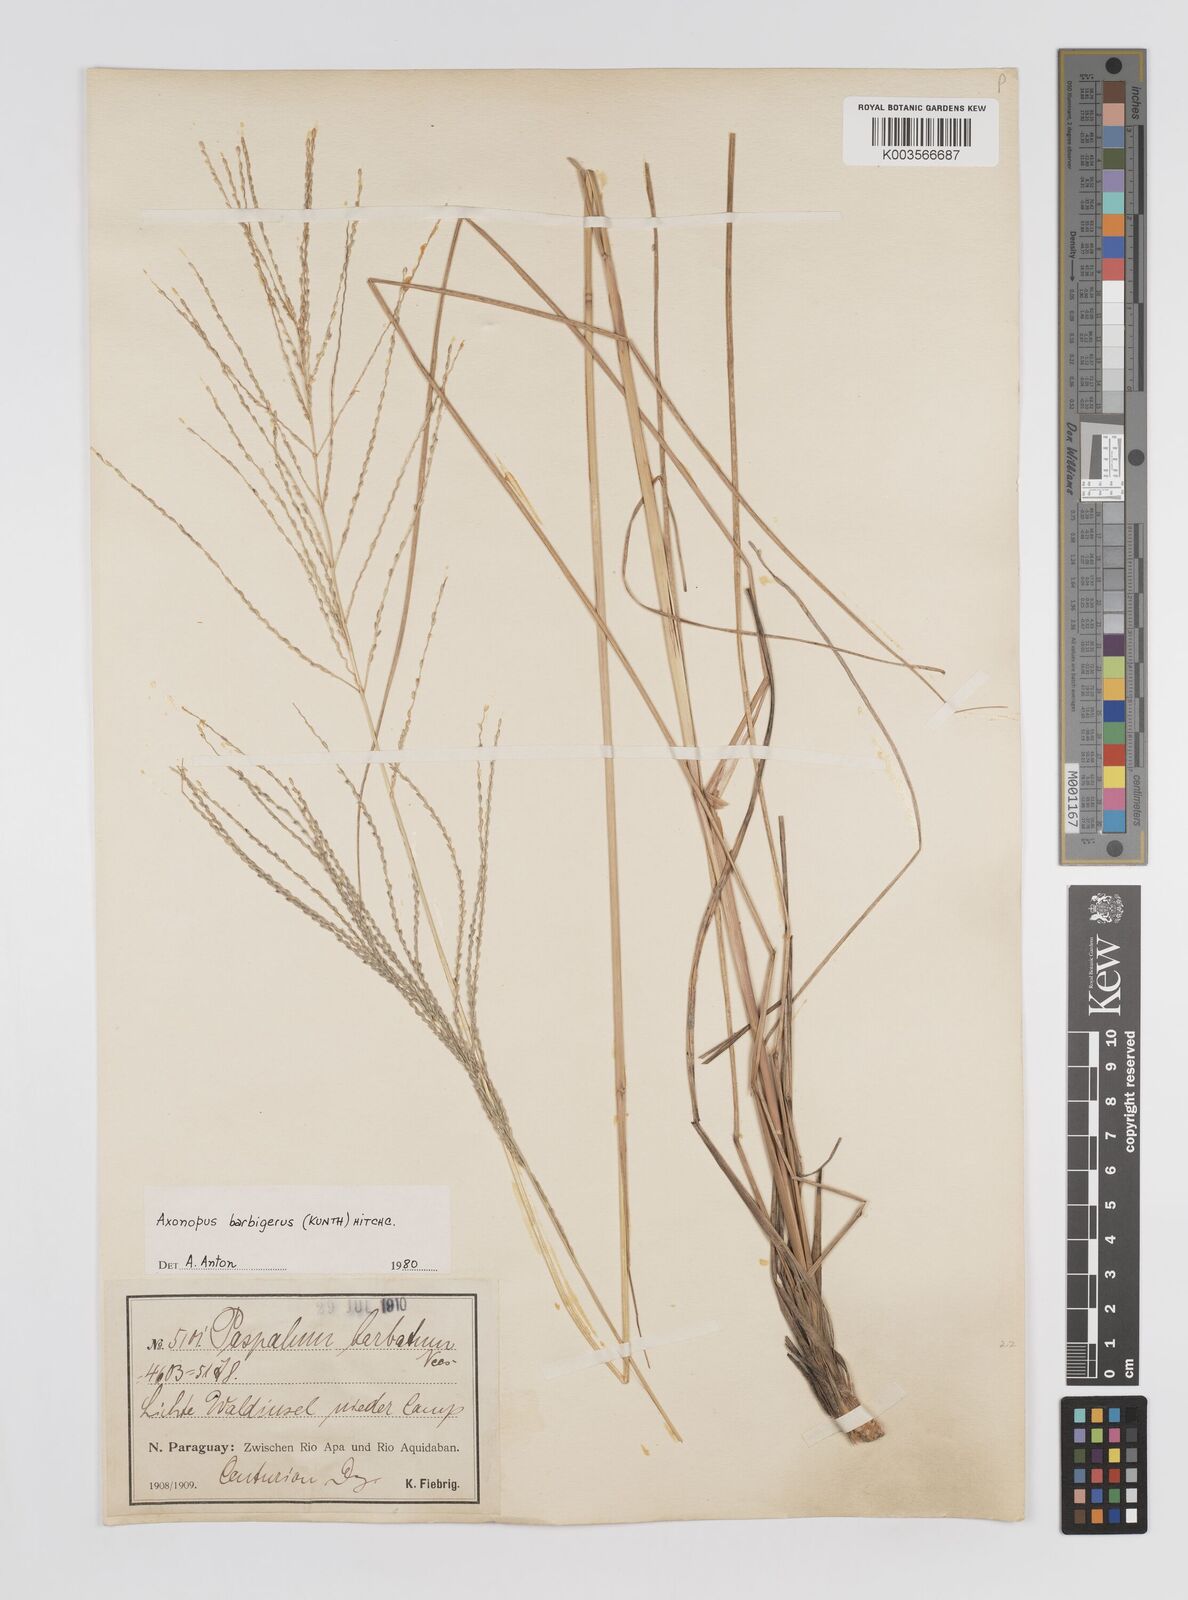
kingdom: Plantae
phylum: Tracheophyta
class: Liliopsida
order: Poales
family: Poaceae
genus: Axonopus
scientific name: Axonopus siccus
